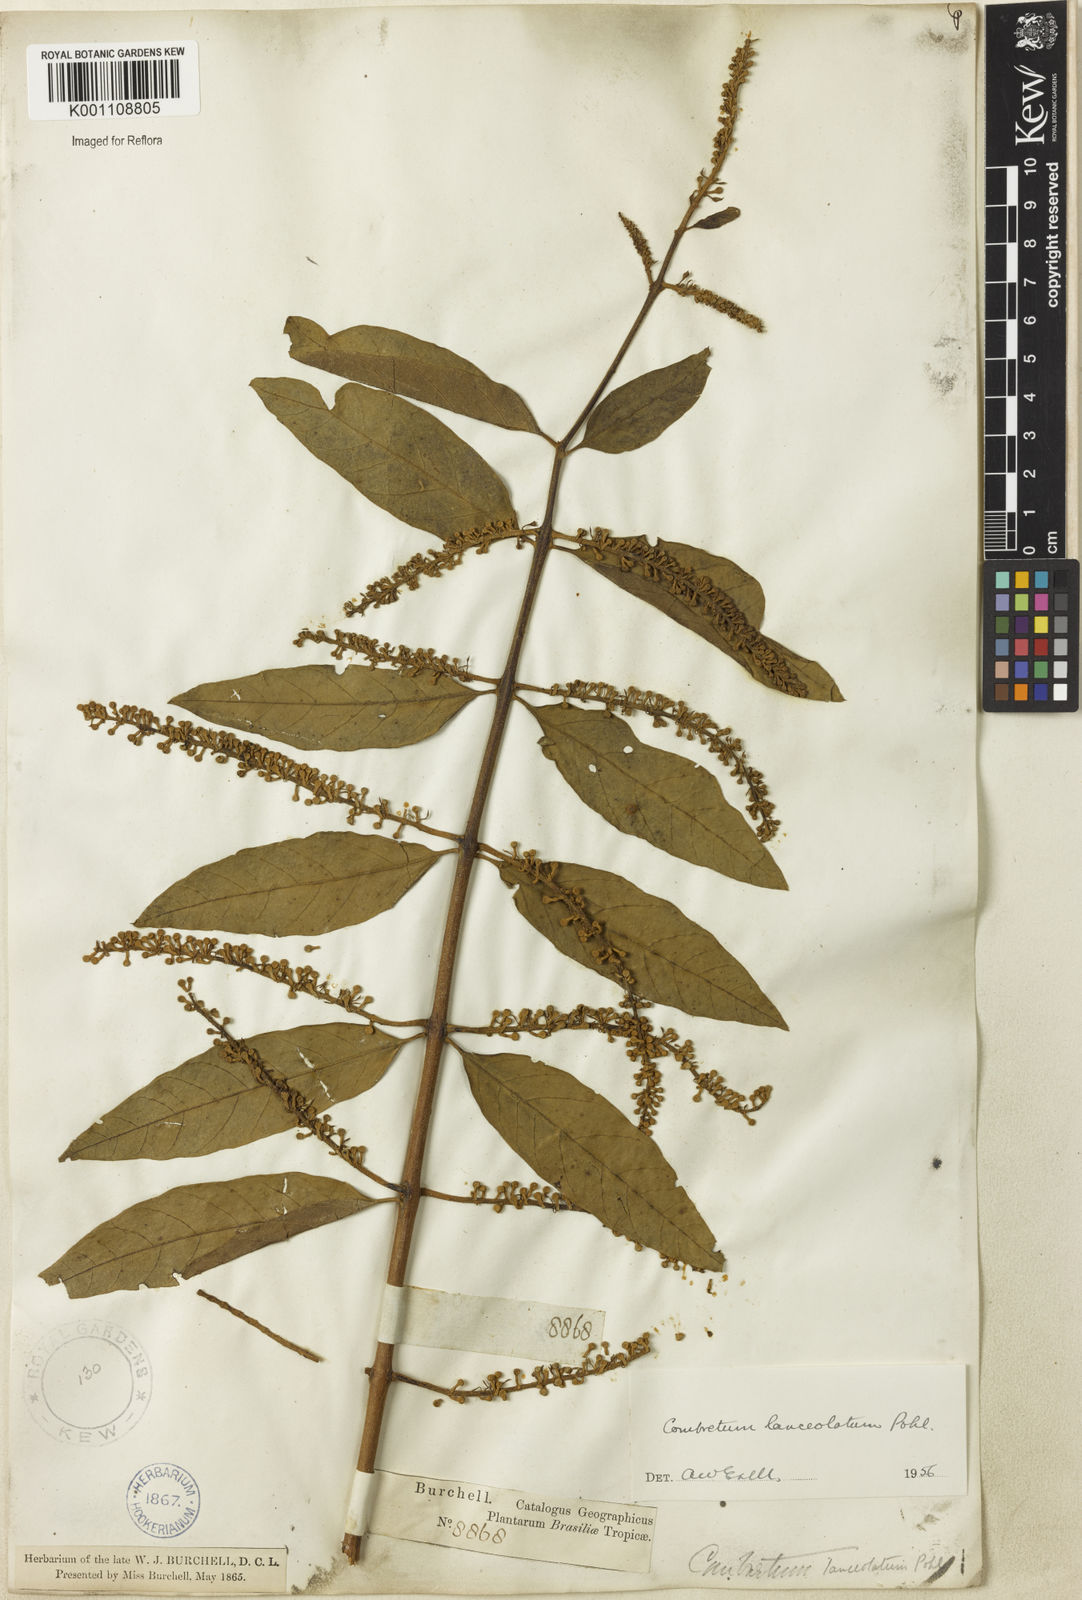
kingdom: Plantae
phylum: Tracheophyta
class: Magnoliopsida
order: Myrtales
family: Combretaceae
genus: Combretum
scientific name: Combretum lanceolatum
